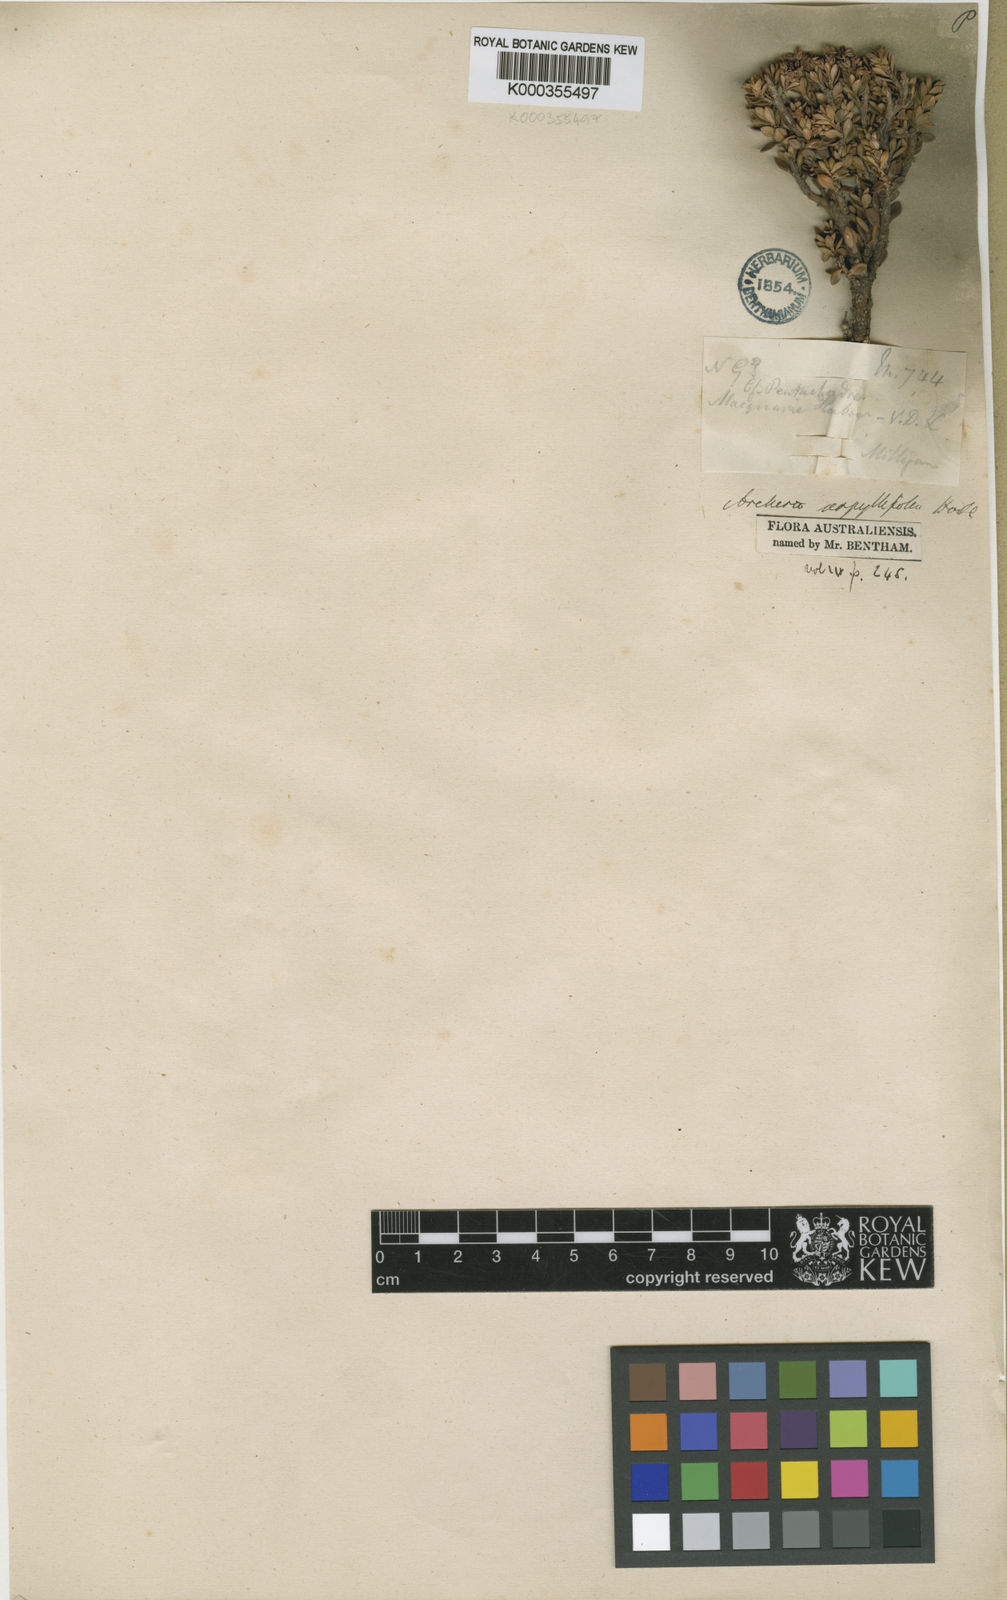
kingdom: Plantae
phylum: Tracheophyta
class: Magnoliopsida
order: Ericales
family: Ericaceae
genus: Archeria
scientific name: Archeria serpyllifolia
